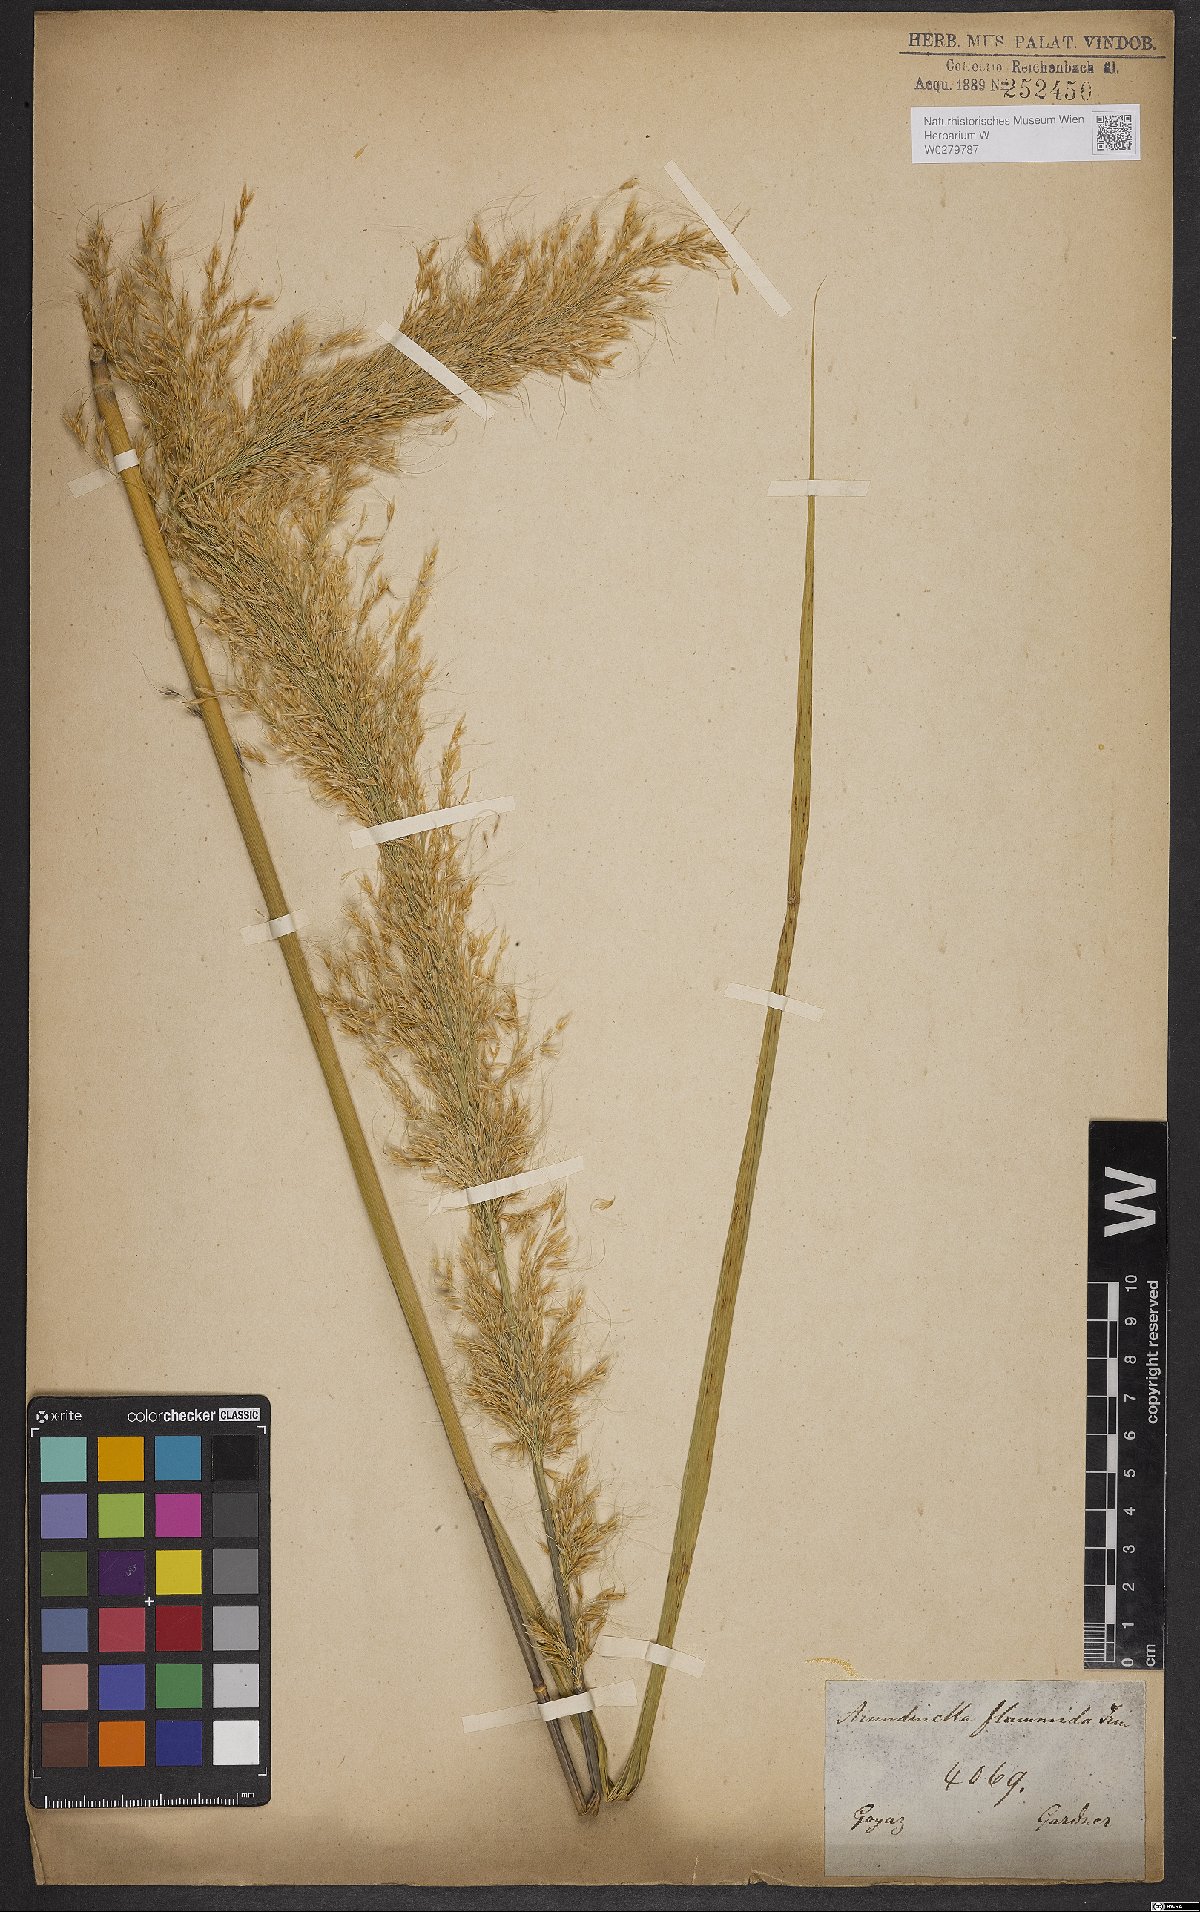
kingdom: Plantae
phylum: Tracheophyta
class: Liliopsida
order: Poales
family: Poaceae
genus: Loudetia
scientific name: Loudetia flammida
